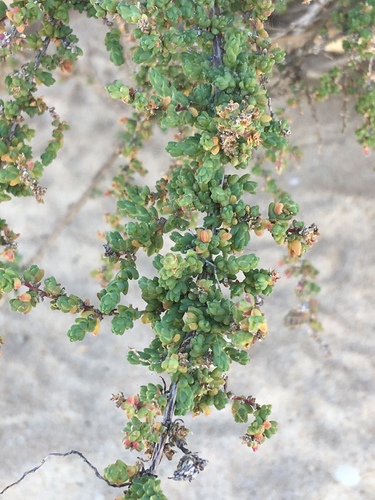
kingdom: Plantae
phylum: Tracheophyta
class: Magnoliopsida
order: Caryophyllales
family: Amaranthaceae
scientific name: Amaranthaceae
